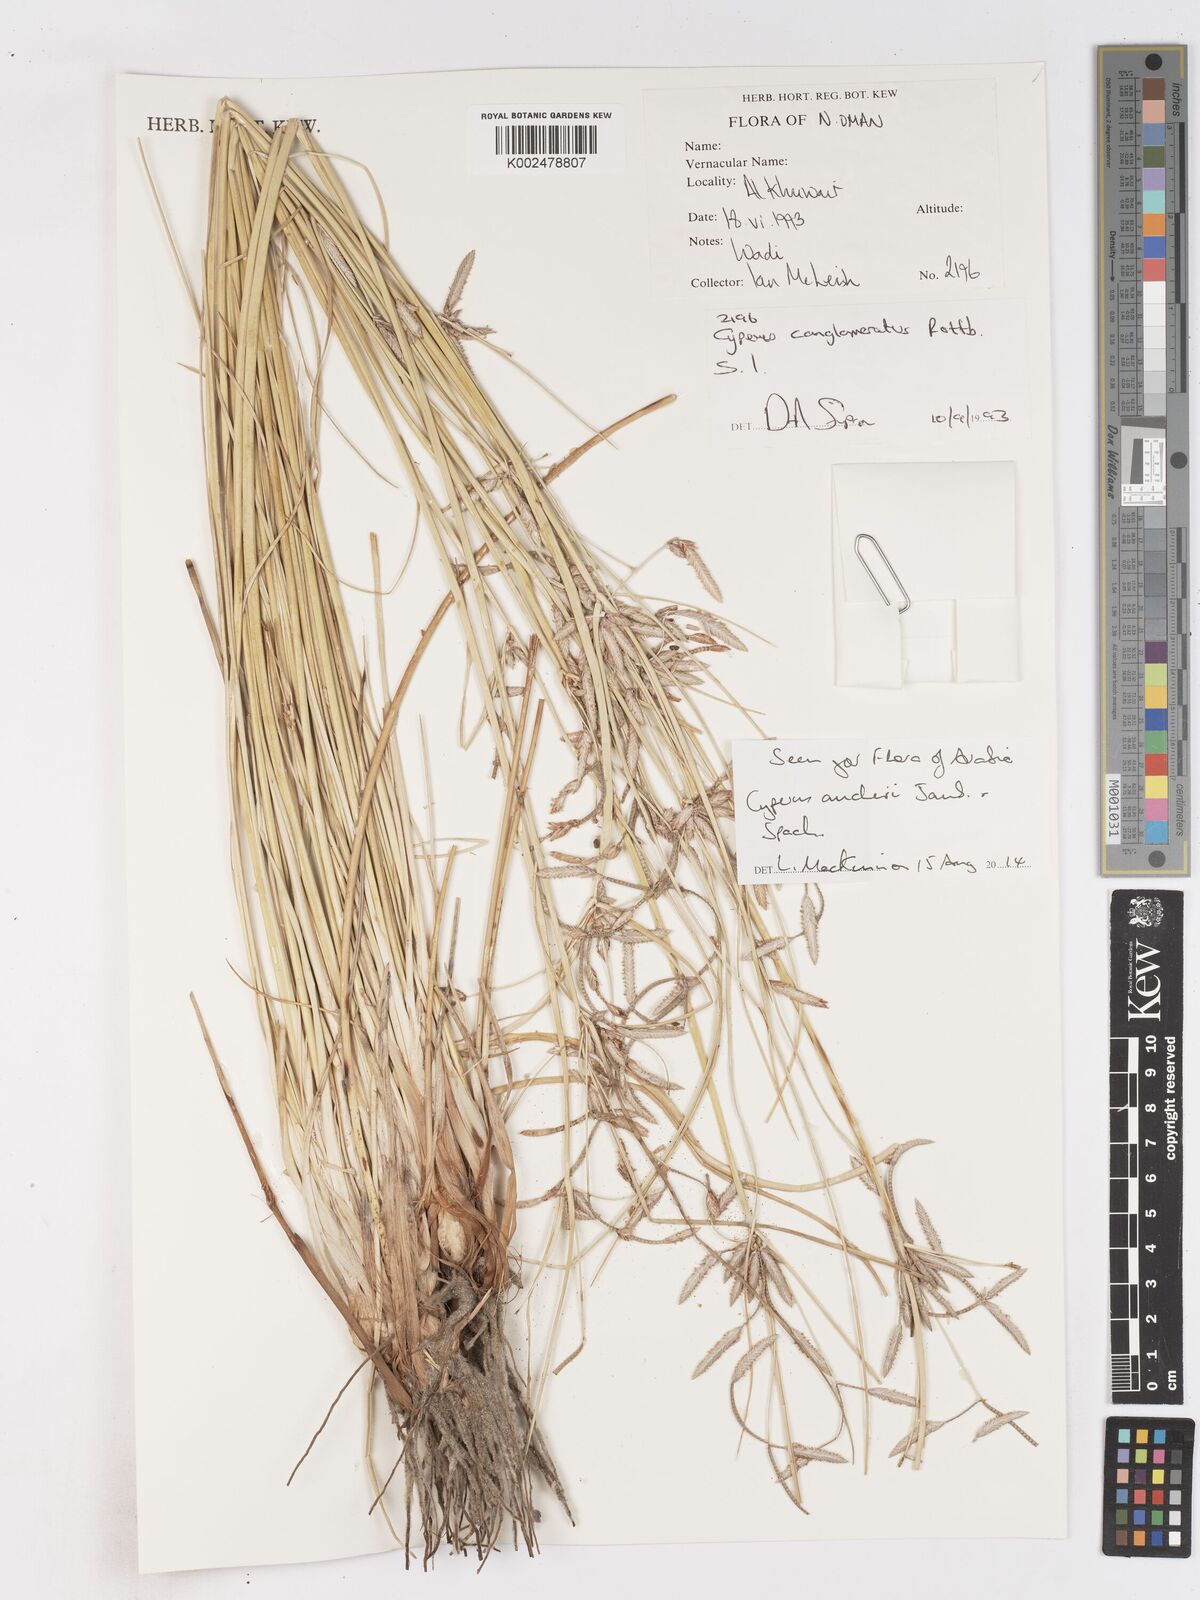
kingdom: Plantae
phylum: Tracheophyta
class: Liliopsida
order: Poales
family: Cyperaceae
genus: Cyperus
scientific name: Cyperus aucheri
